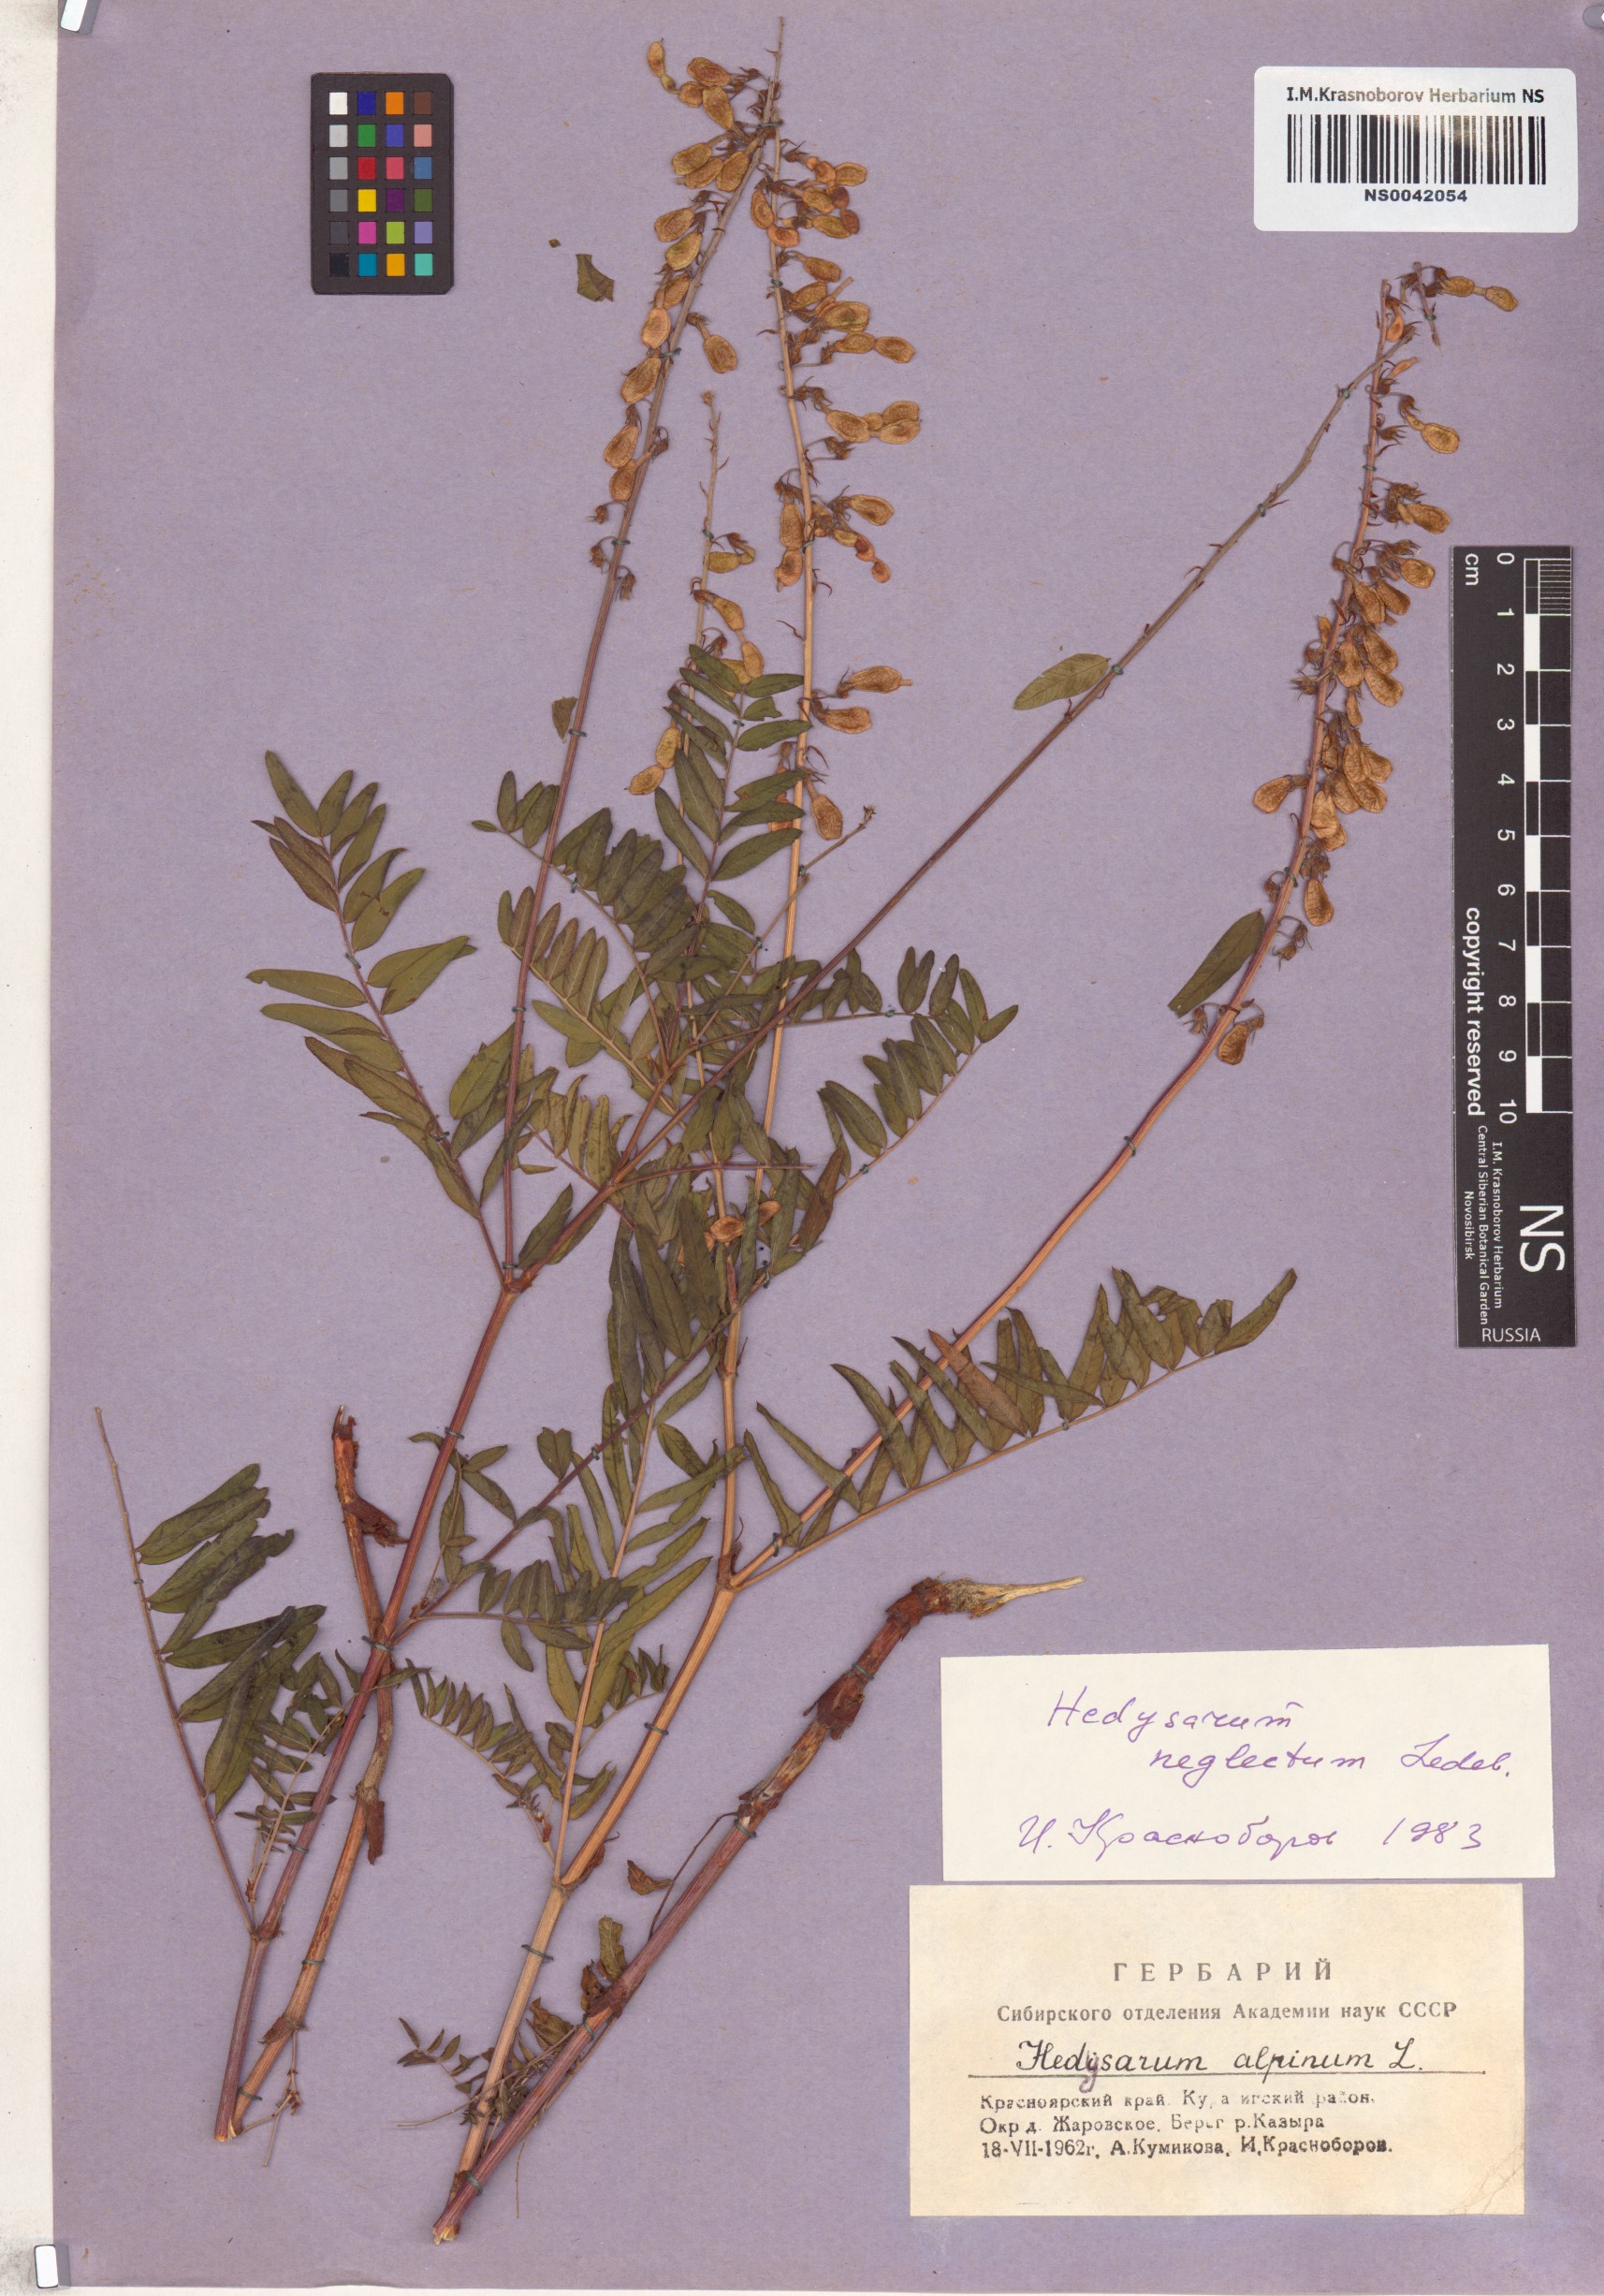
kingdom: Plantae
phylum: Tracheophyta
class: Magnoliopsida
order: Fabales
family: Fabaceae
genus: Hedysarum
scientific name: Hedysarum neglectum
